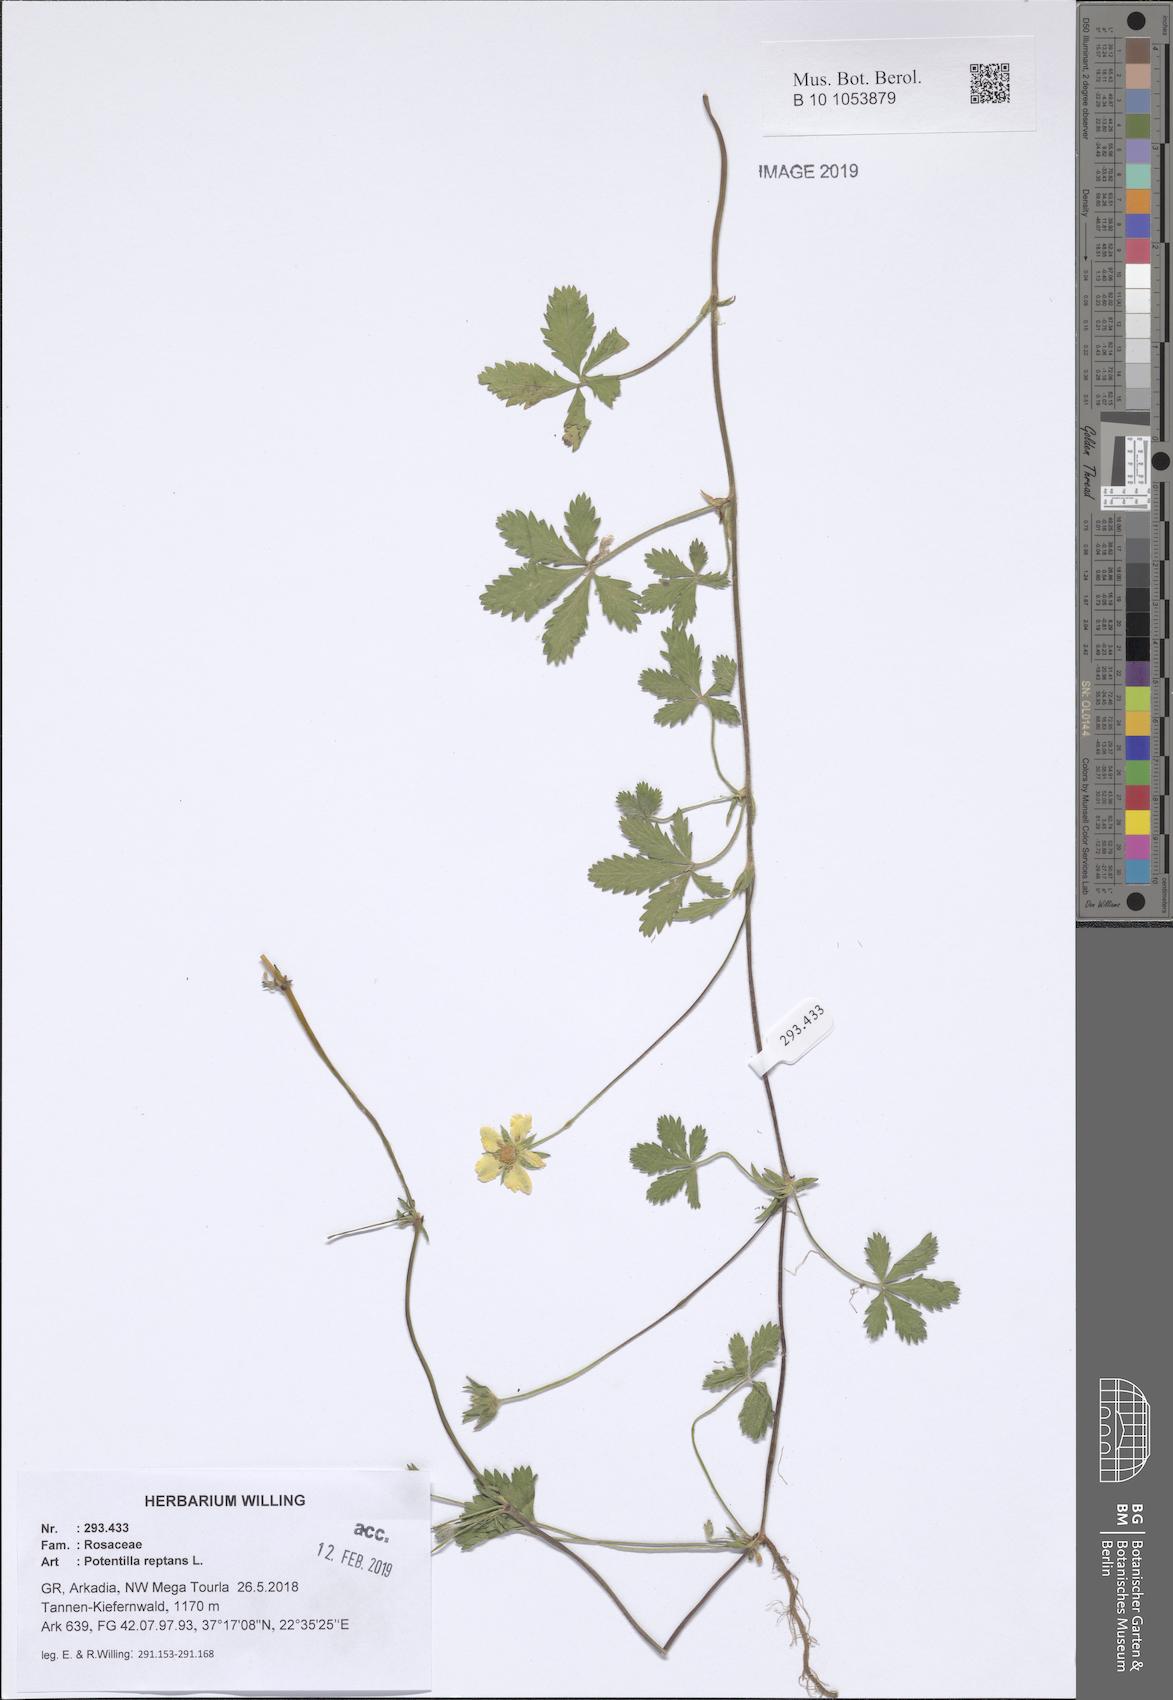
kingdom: Plantae
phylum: Tracheophyta
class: Magnoliopsida
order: Rosales
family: Rosaceae
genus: Potentilla
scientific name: Potentilla reptans
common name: Creeping cinquefoil
